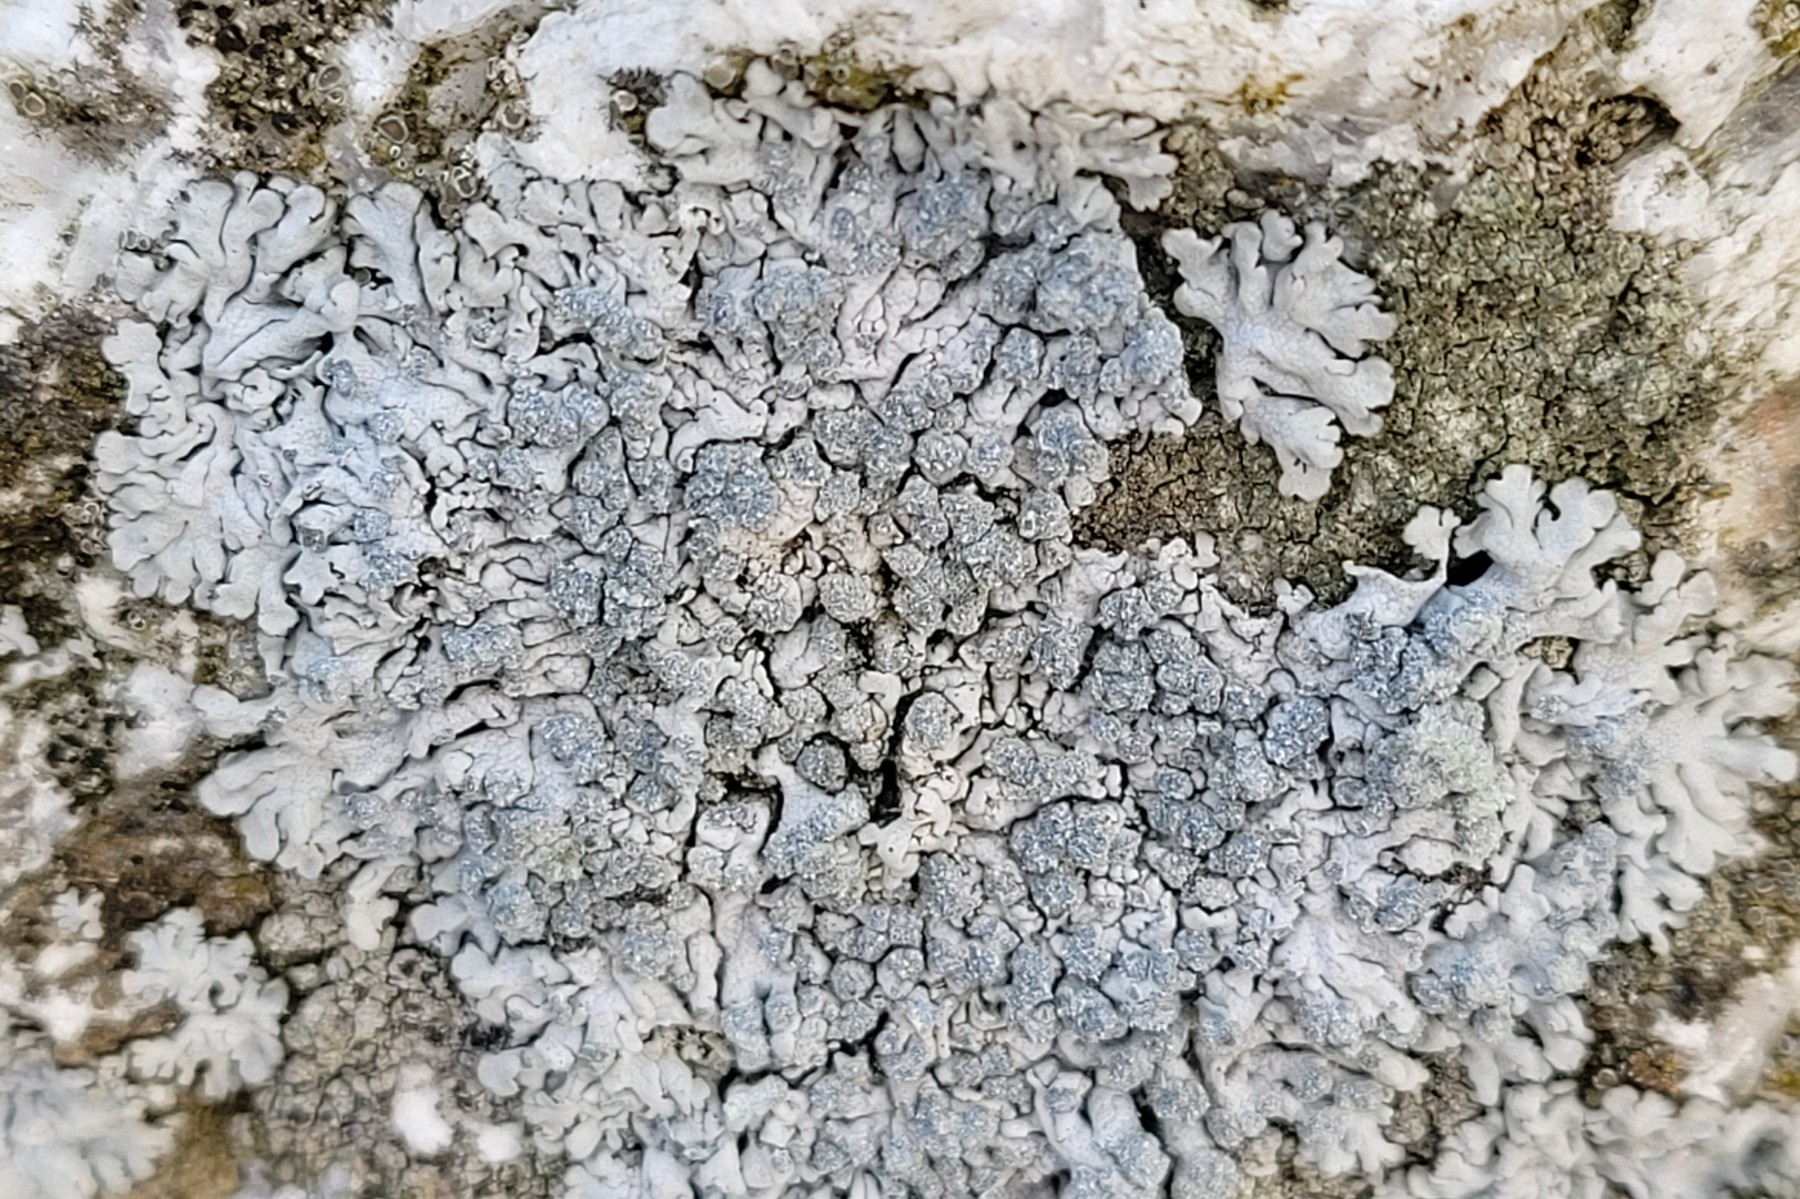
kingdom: Fungi
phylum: Ascomycota
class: Lecanoromycetes
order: Caliciales
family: Physciaceae
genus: Physcia
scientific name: Physcia caesia
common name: blågrå rosetlav
